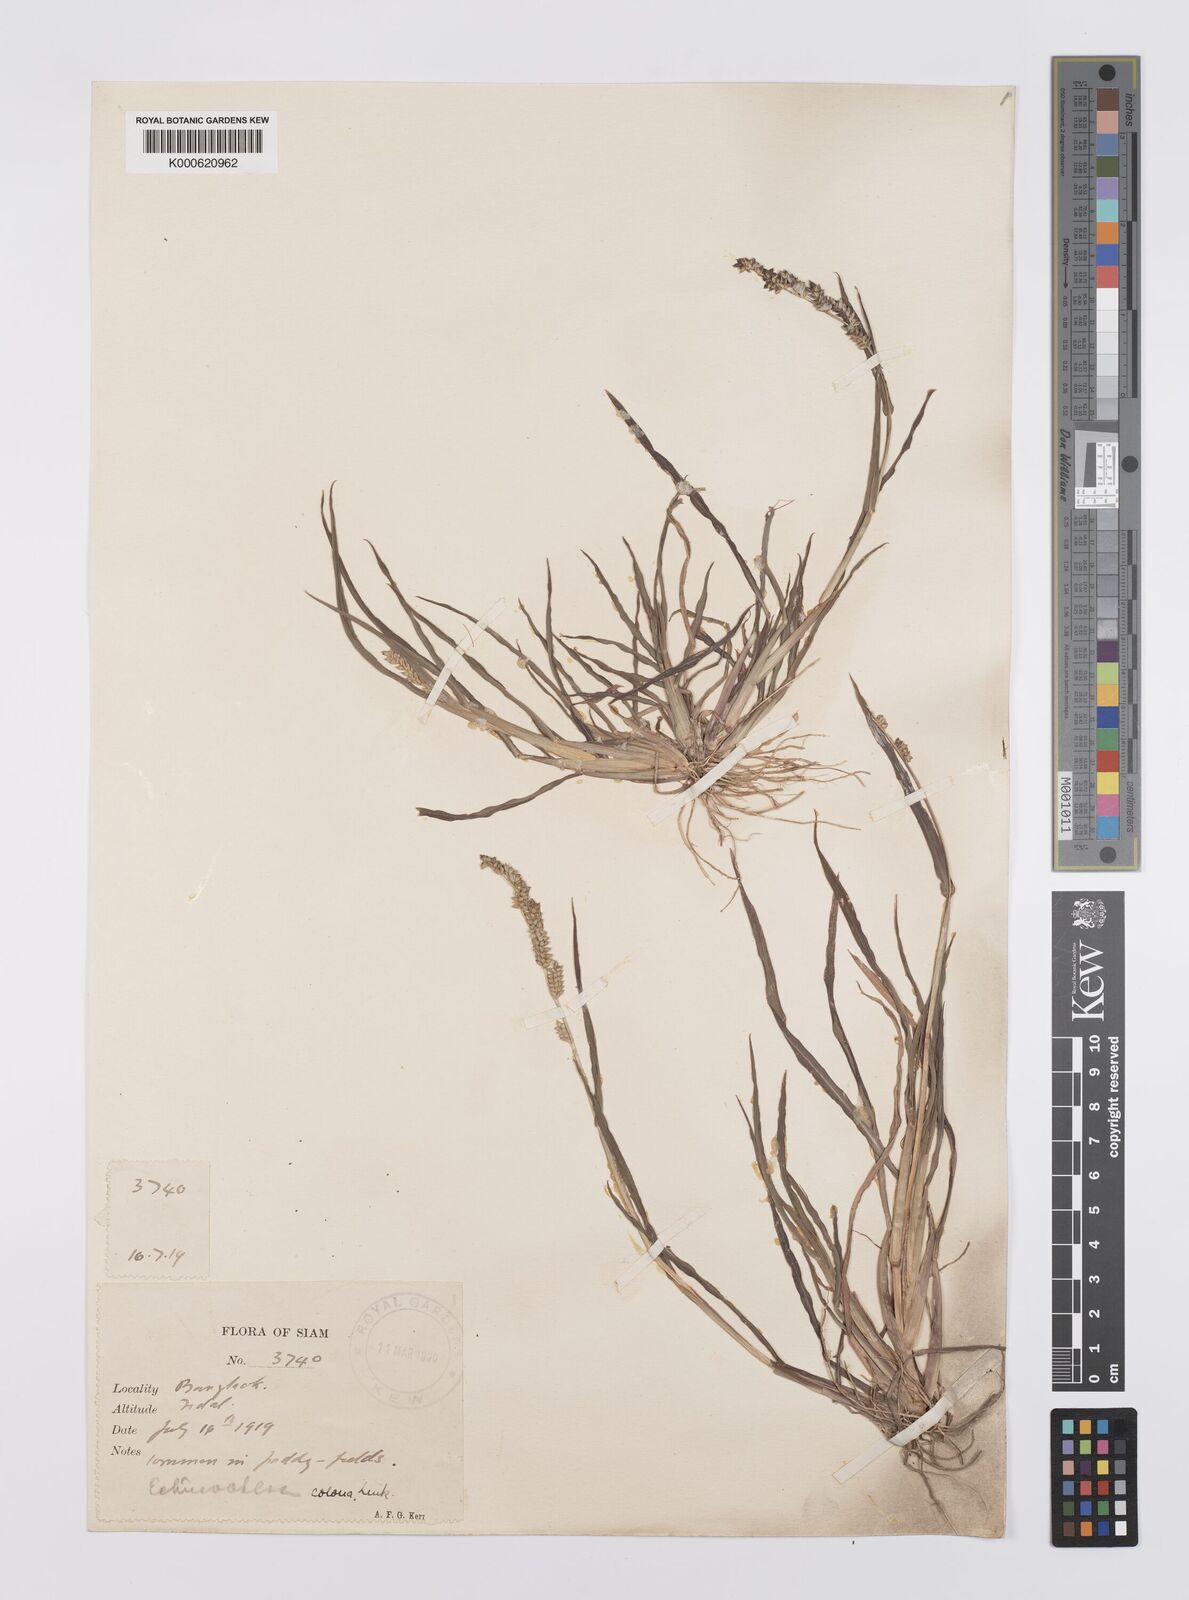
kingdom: Plantae
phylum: Tracheophyta
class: Liliopsida
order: Poales
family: Poaceae
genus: Echinochloa
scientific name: Echinochloa colonum
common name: Jungle rice
